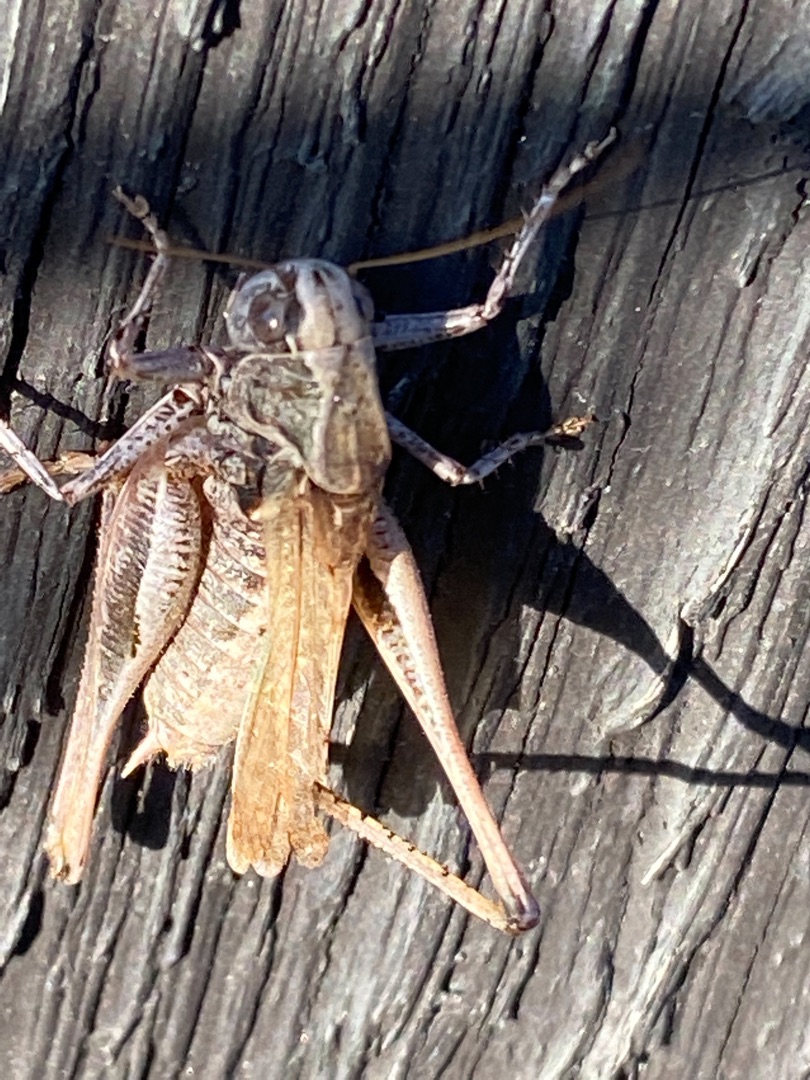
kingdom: Animalia
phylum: Arthropoda
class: Insecta
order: Orthoptera
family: Tettigoniidae
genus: Platycleis
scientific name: Platycleis albopunctata
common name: Sandgræshoppe
